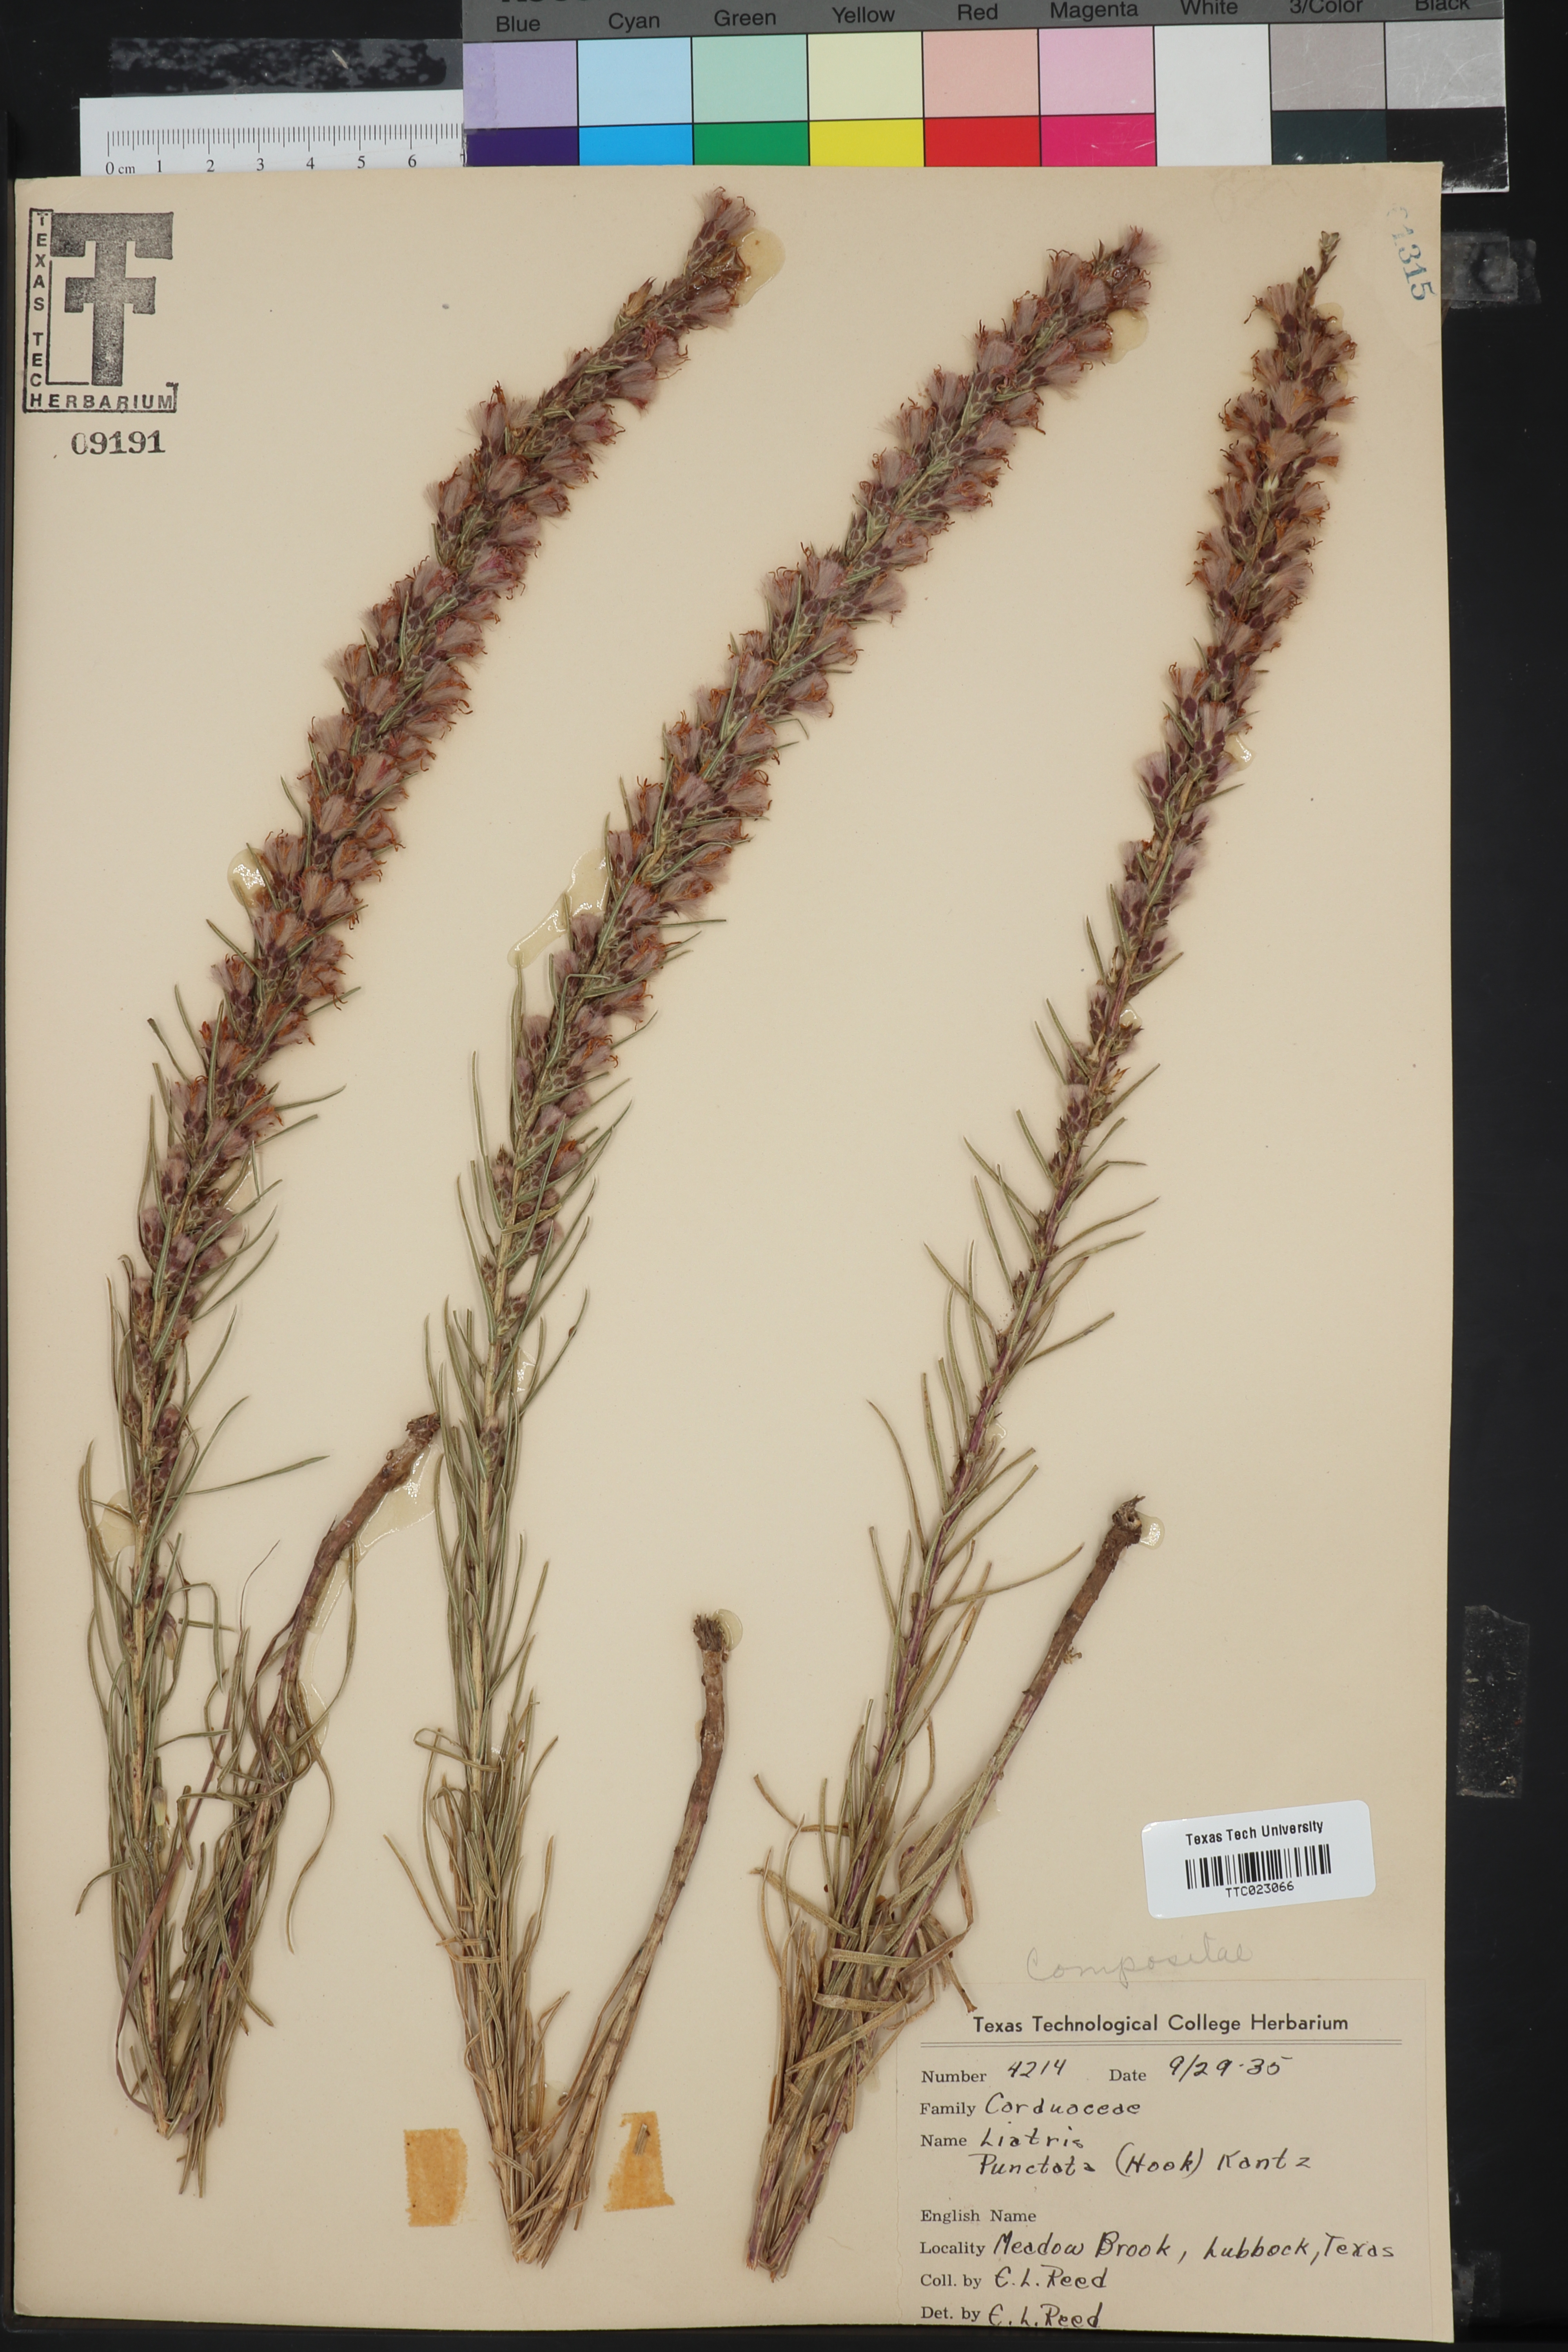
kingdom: Plantae
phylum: Tracheophyta
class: Magnoliopsida
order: Asterales
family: Asteraceae
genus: Liatris
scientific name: Liatris punctata
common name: Dotted gayfeather
